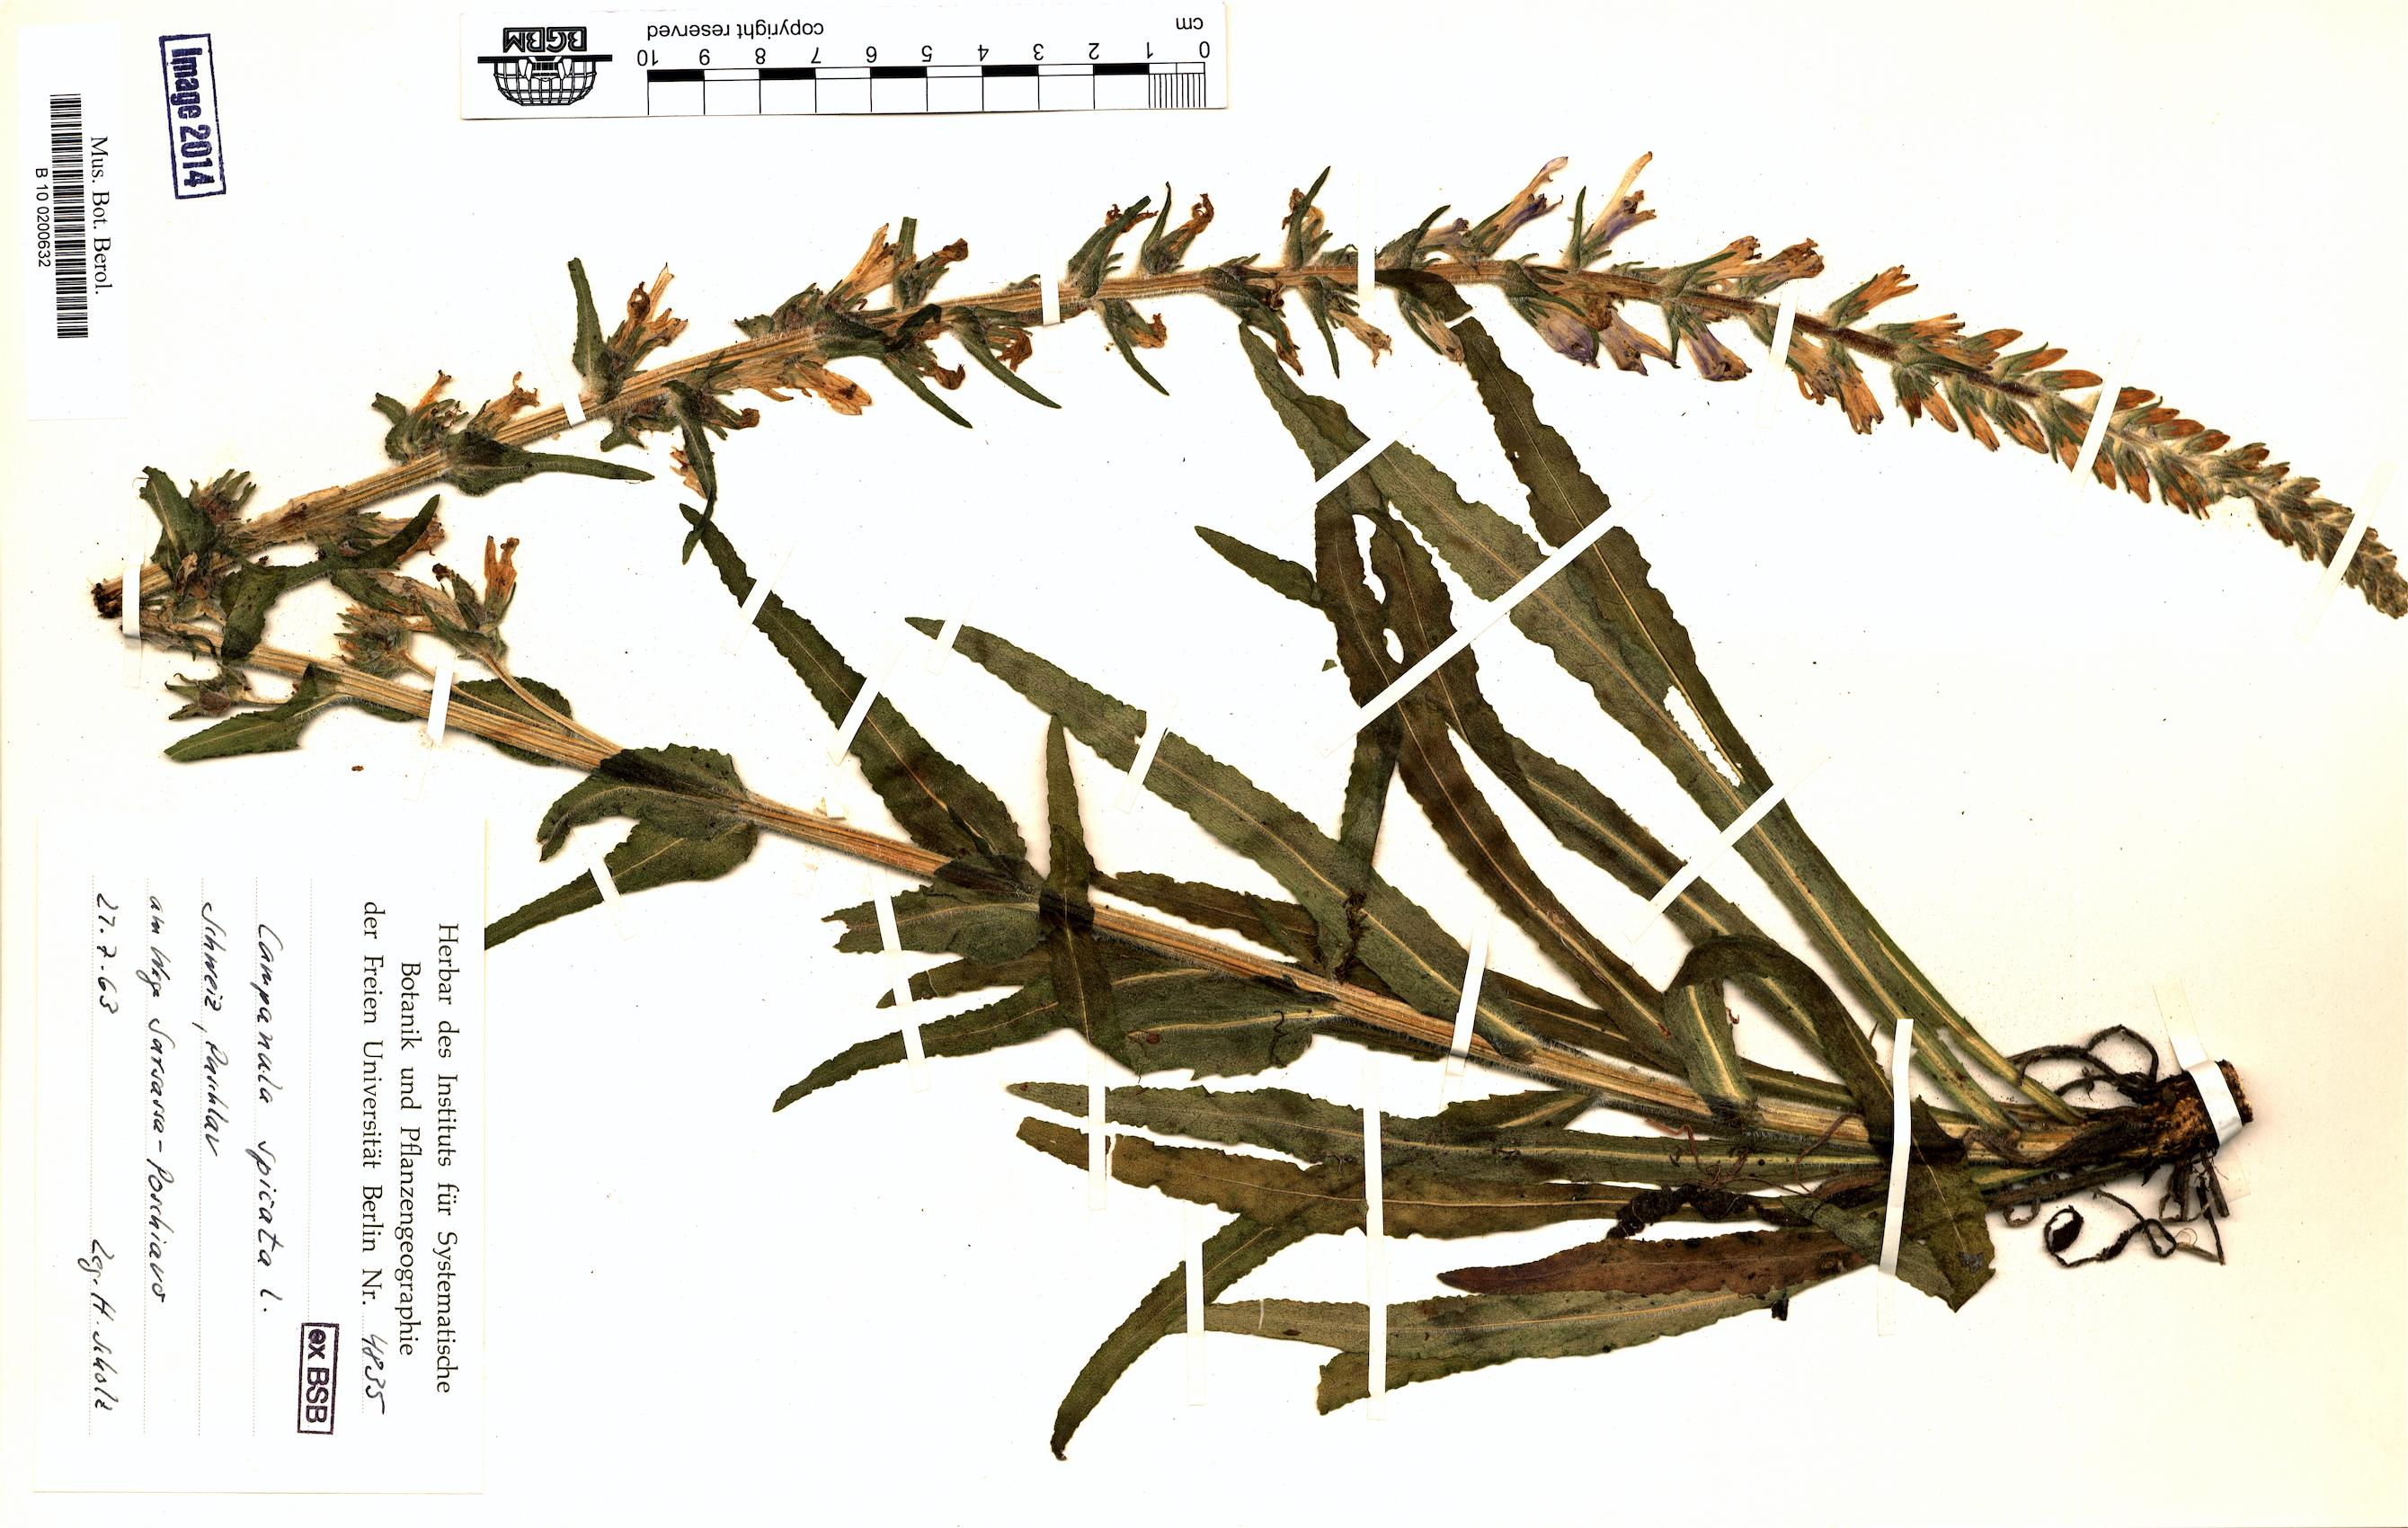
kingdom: Plantae
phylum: Tracheophyta
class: Magnoliopsida
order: Asterales
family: Campanulaceae
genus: Campanula
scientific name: Campanula spicata
